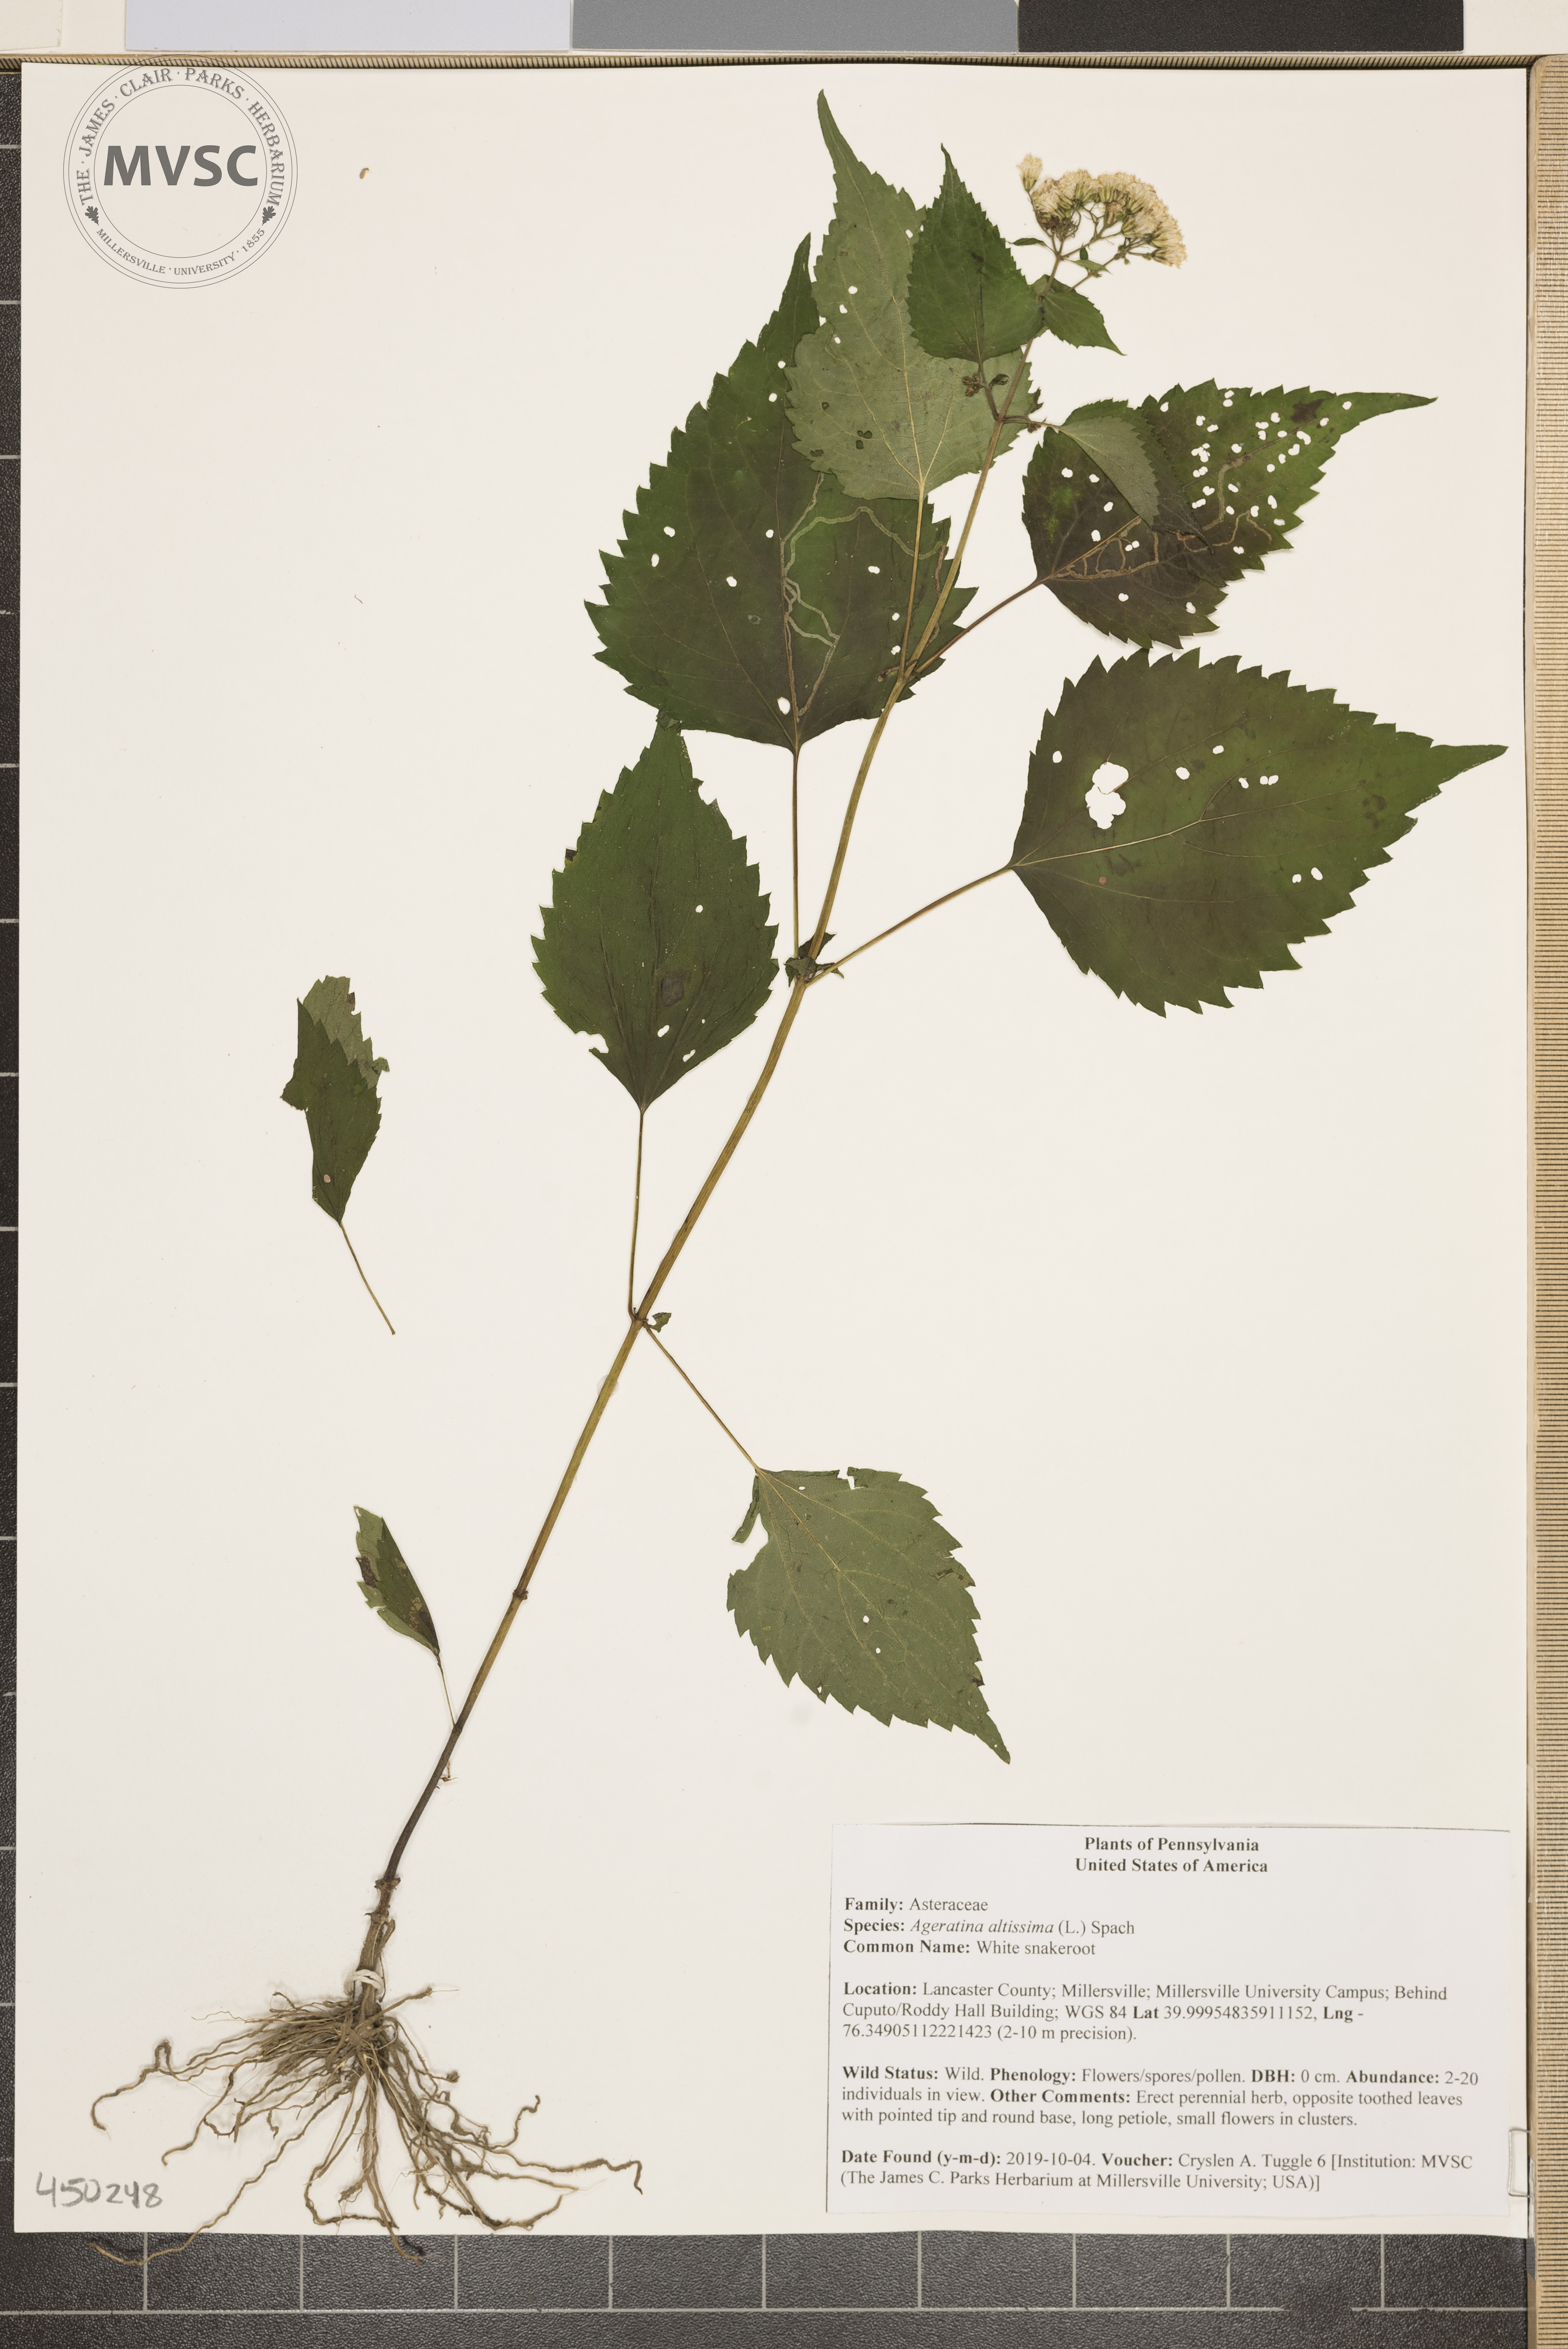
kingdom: Plantae
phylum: Tracheophyta
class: Magnoliopsida
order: Asterales
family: Asteraceae
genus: Ageratina
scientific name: Ageratina altissima
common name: White snakeroot
